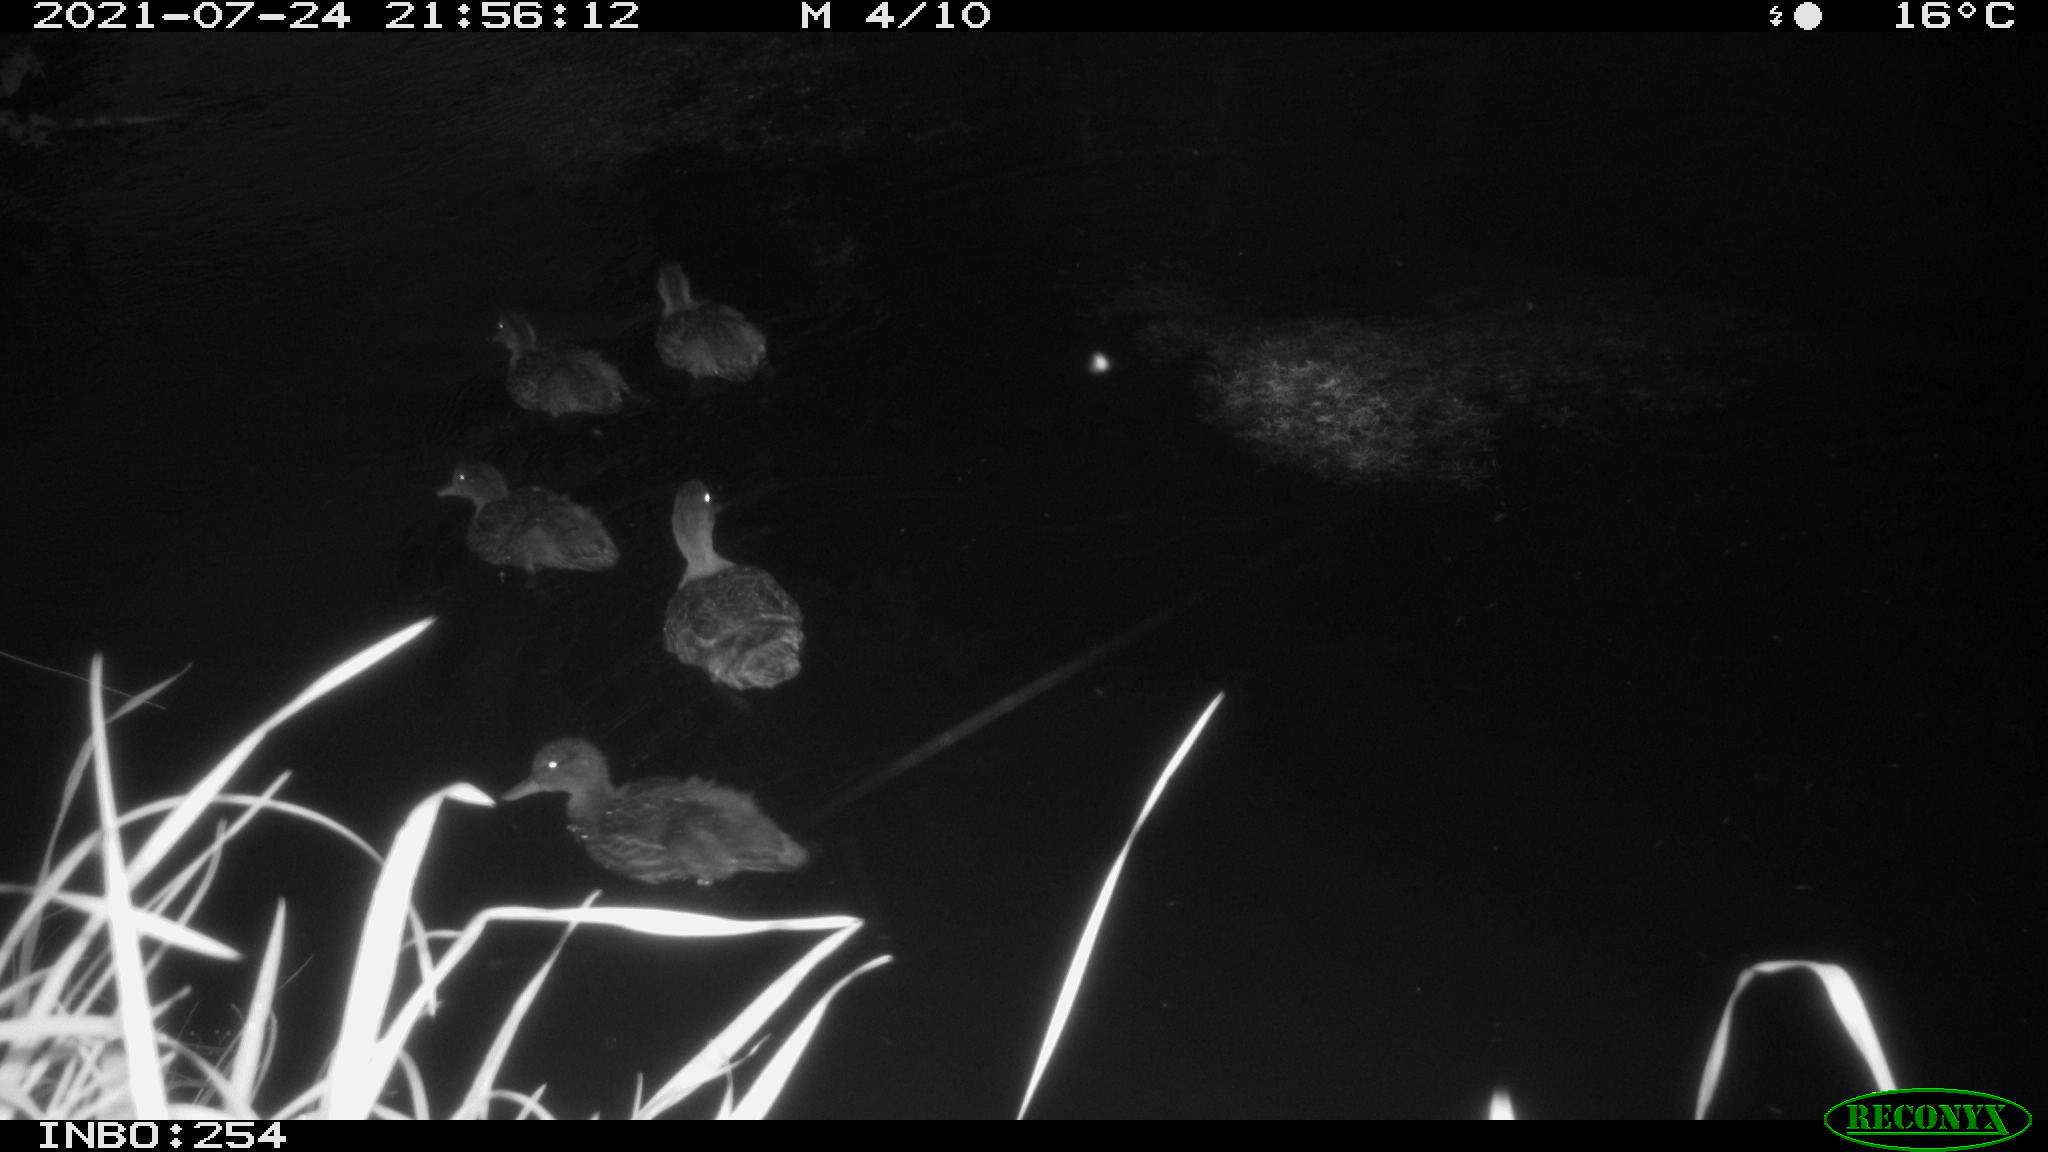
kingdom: Animalia
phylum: Chordata
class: Aves
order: Anseriformes
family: Anatidae
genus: Anas
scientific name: Anas platyrhynchos
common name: Mallard
